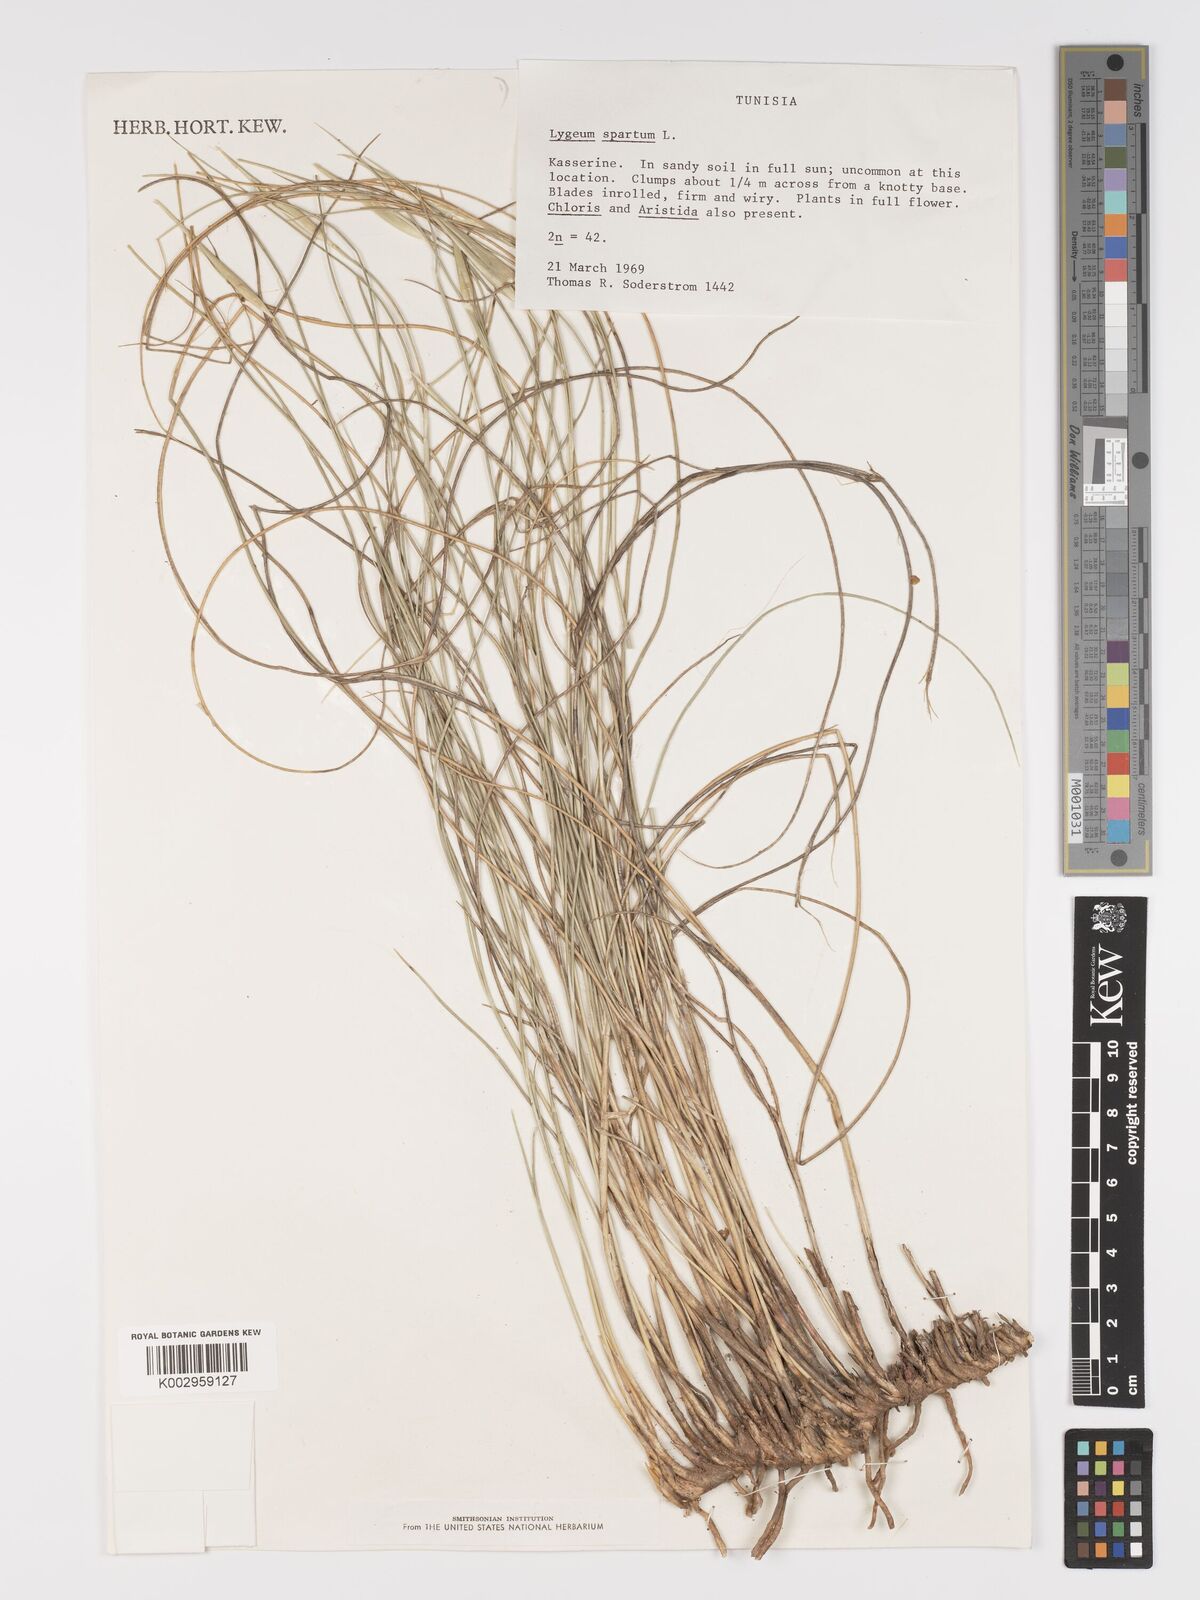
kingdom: Plantae
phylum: Tracheophyta
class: Liliopsida
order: Poales
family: Poaceae
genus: Lygeum
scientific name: Lygeum spartum
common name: Albardine
